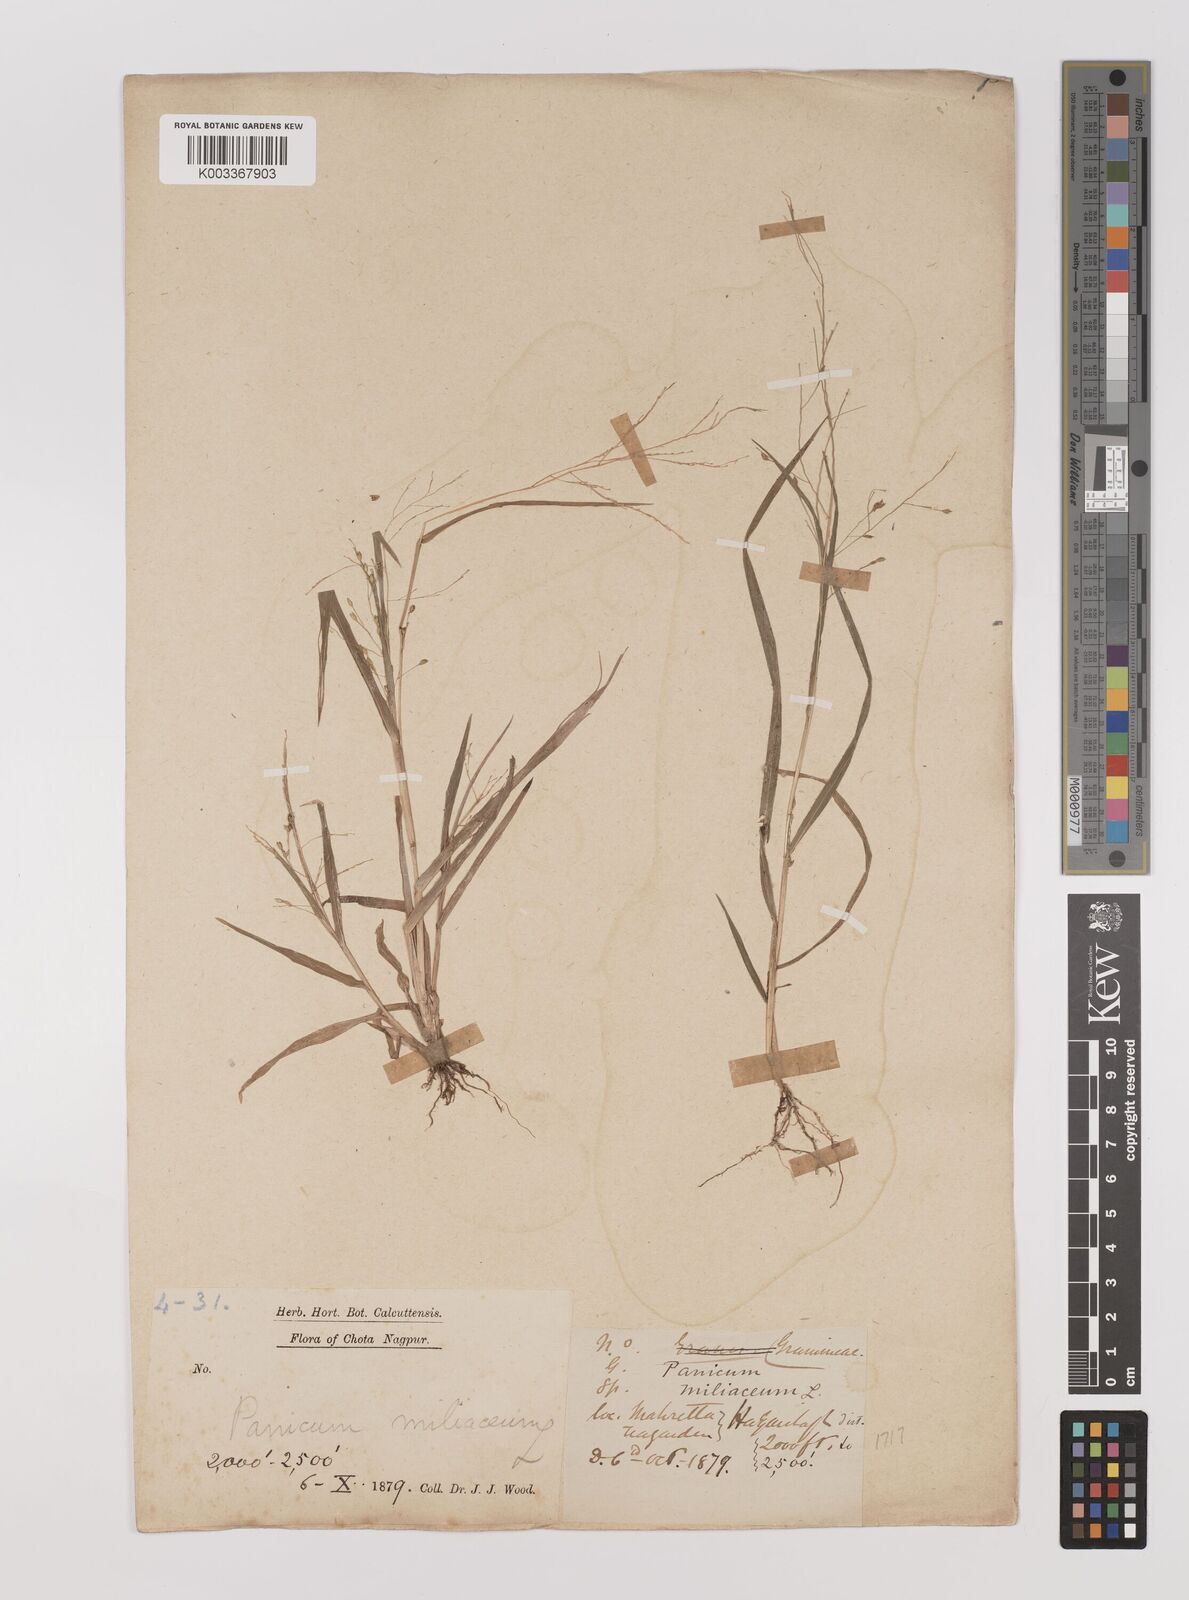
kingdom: Plantae
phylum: Tracheophyta
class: Liliopsida
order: Poales
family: Poaceae
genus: Panicum
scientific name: Panicum miliaceum
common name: Common millet
